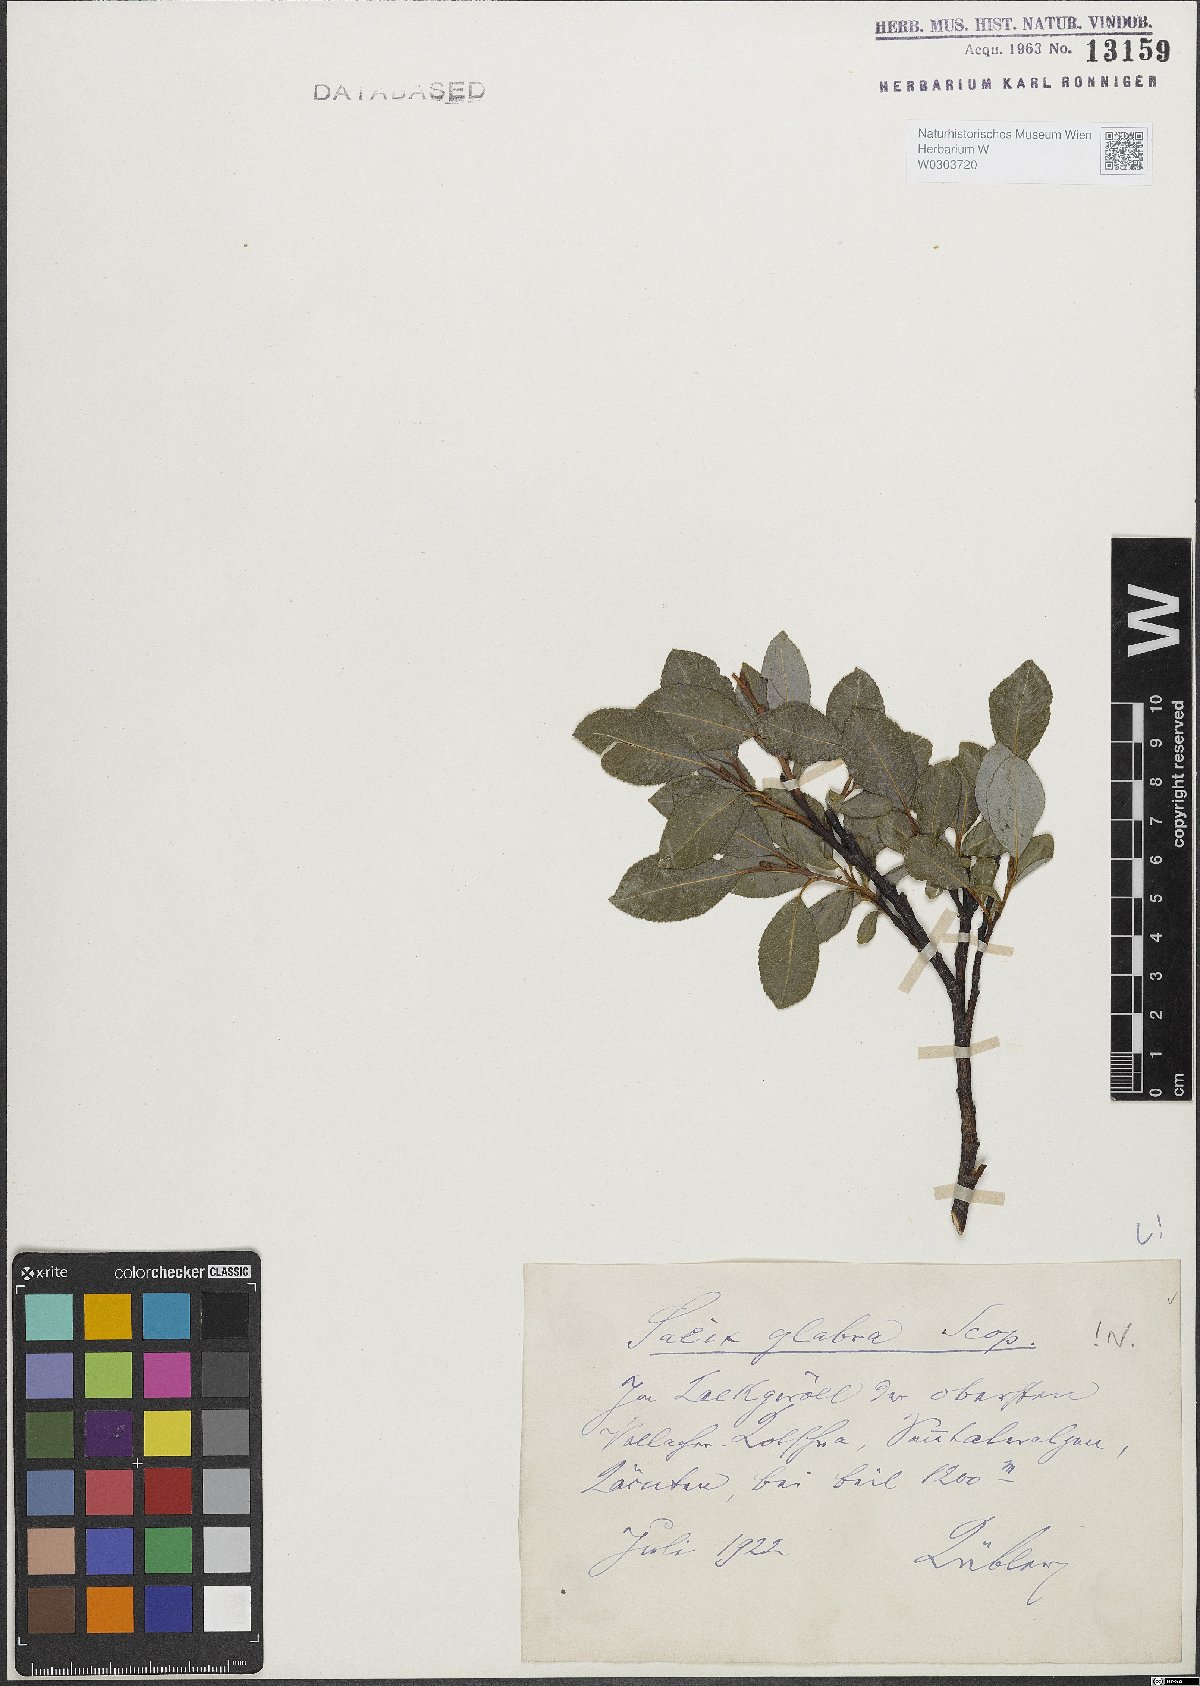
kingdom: Plantae
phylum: Tracheophyta
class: Magnoliopsida
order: Malpighiales
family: Salicaceae
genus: Salix
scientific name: Salix glabra
